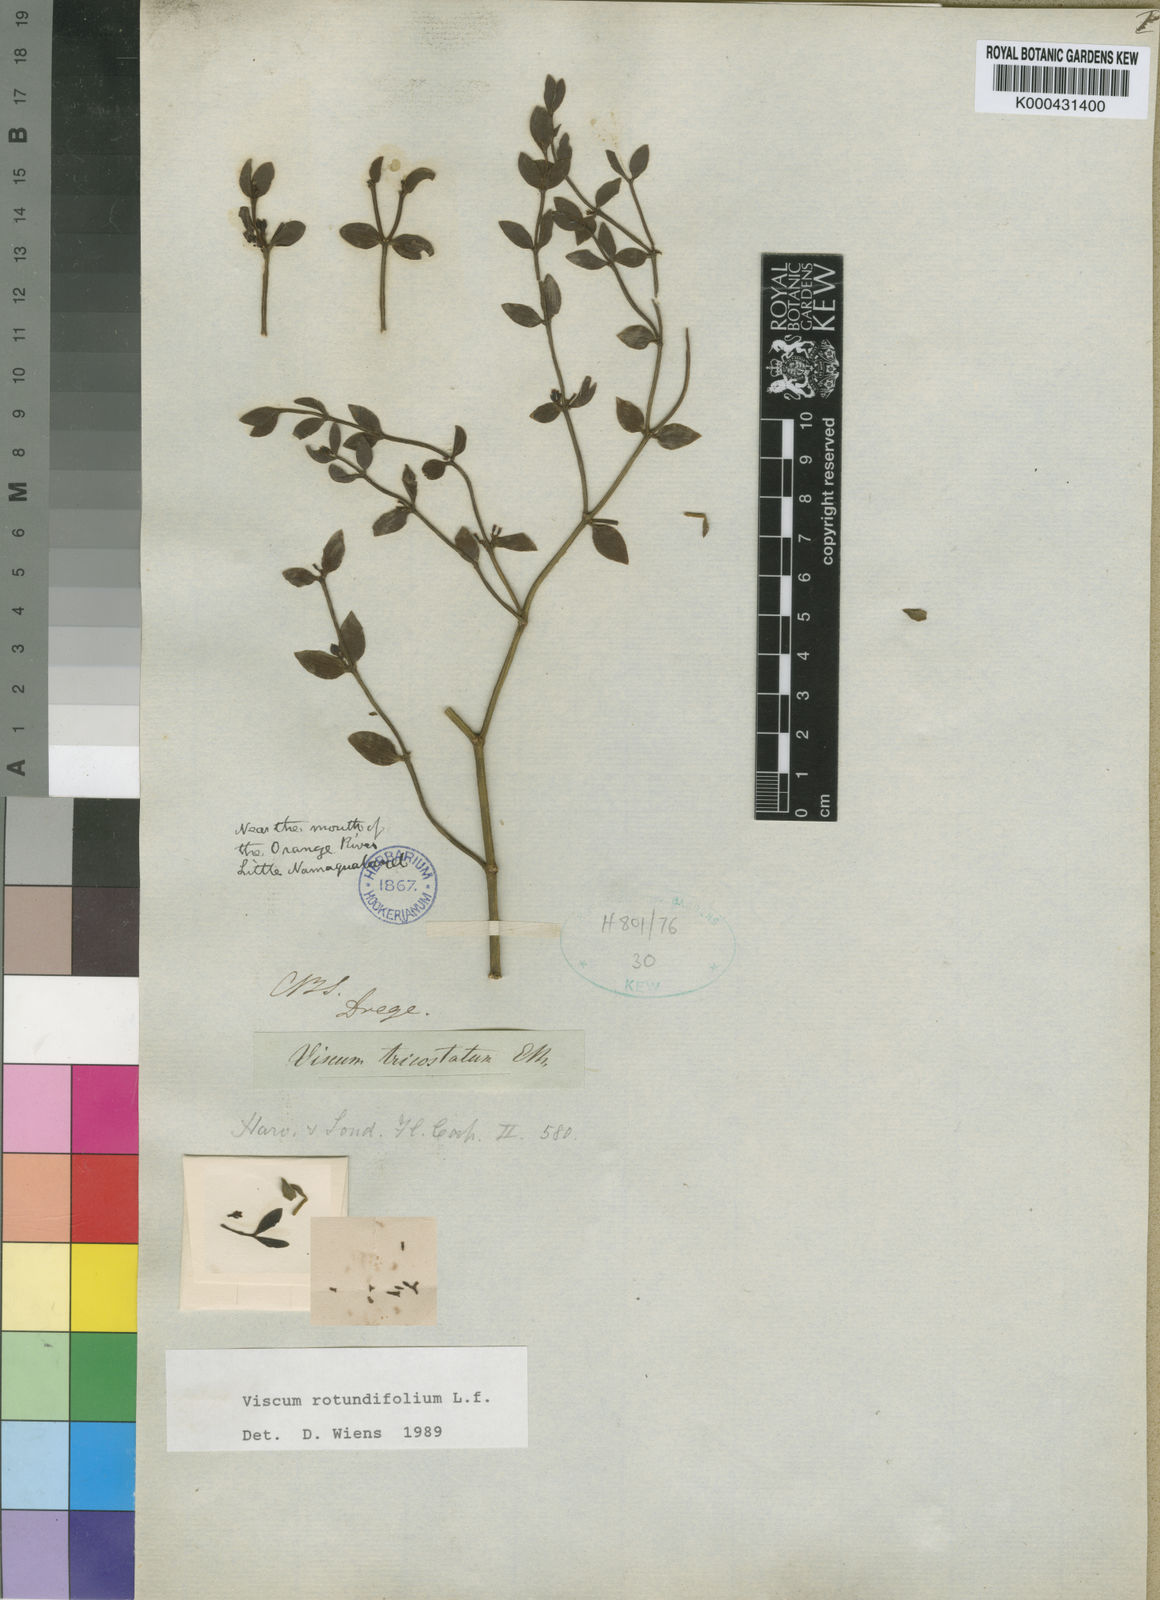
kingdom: Plantae
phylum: Tracheophyta
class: Magnoliopsida
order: Santalales
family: Viscaceae
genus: Viscum
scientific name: Viscum rotundifolium
